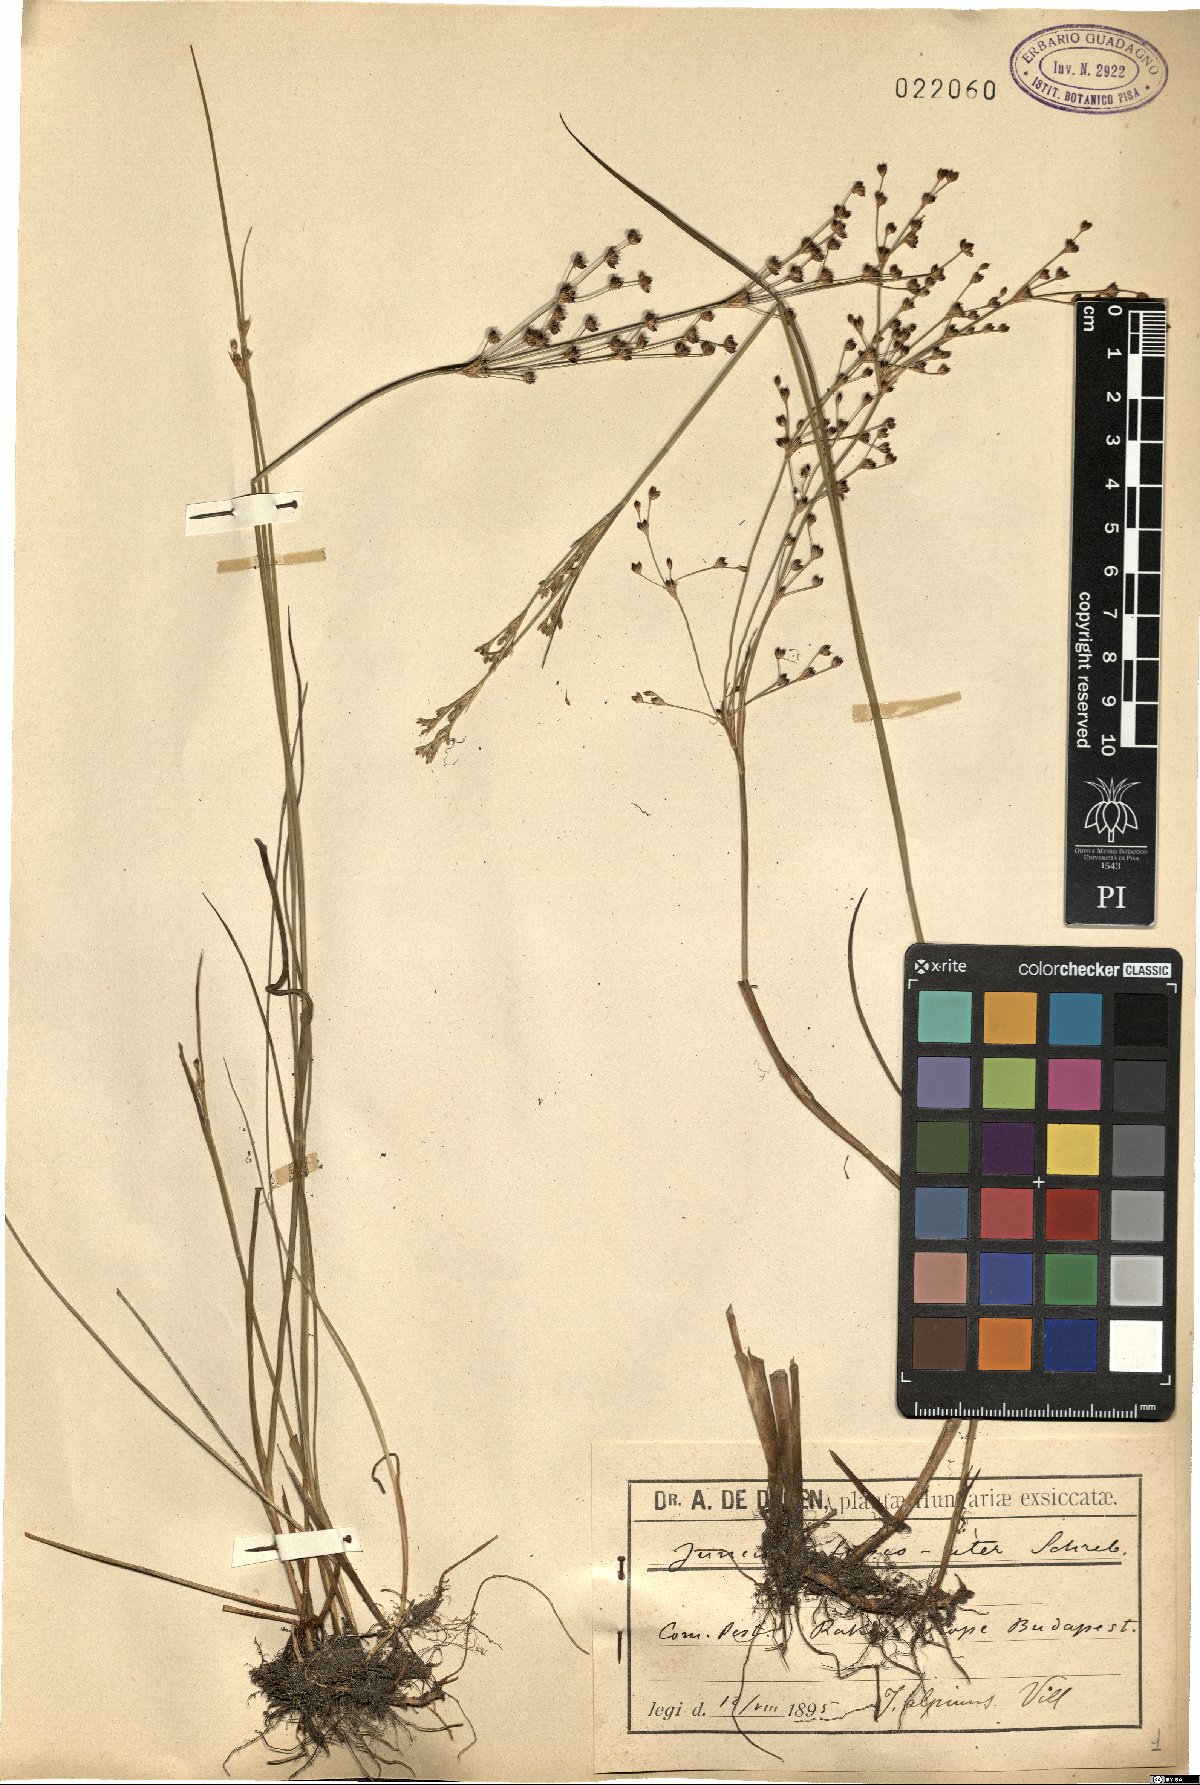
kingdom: Plantae
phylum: Tracheophyta
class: Liliopsida
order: Poales
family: Juncaceae
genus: Juncus
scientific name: Juncus alpinoarticulatus
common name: Alpine rush
